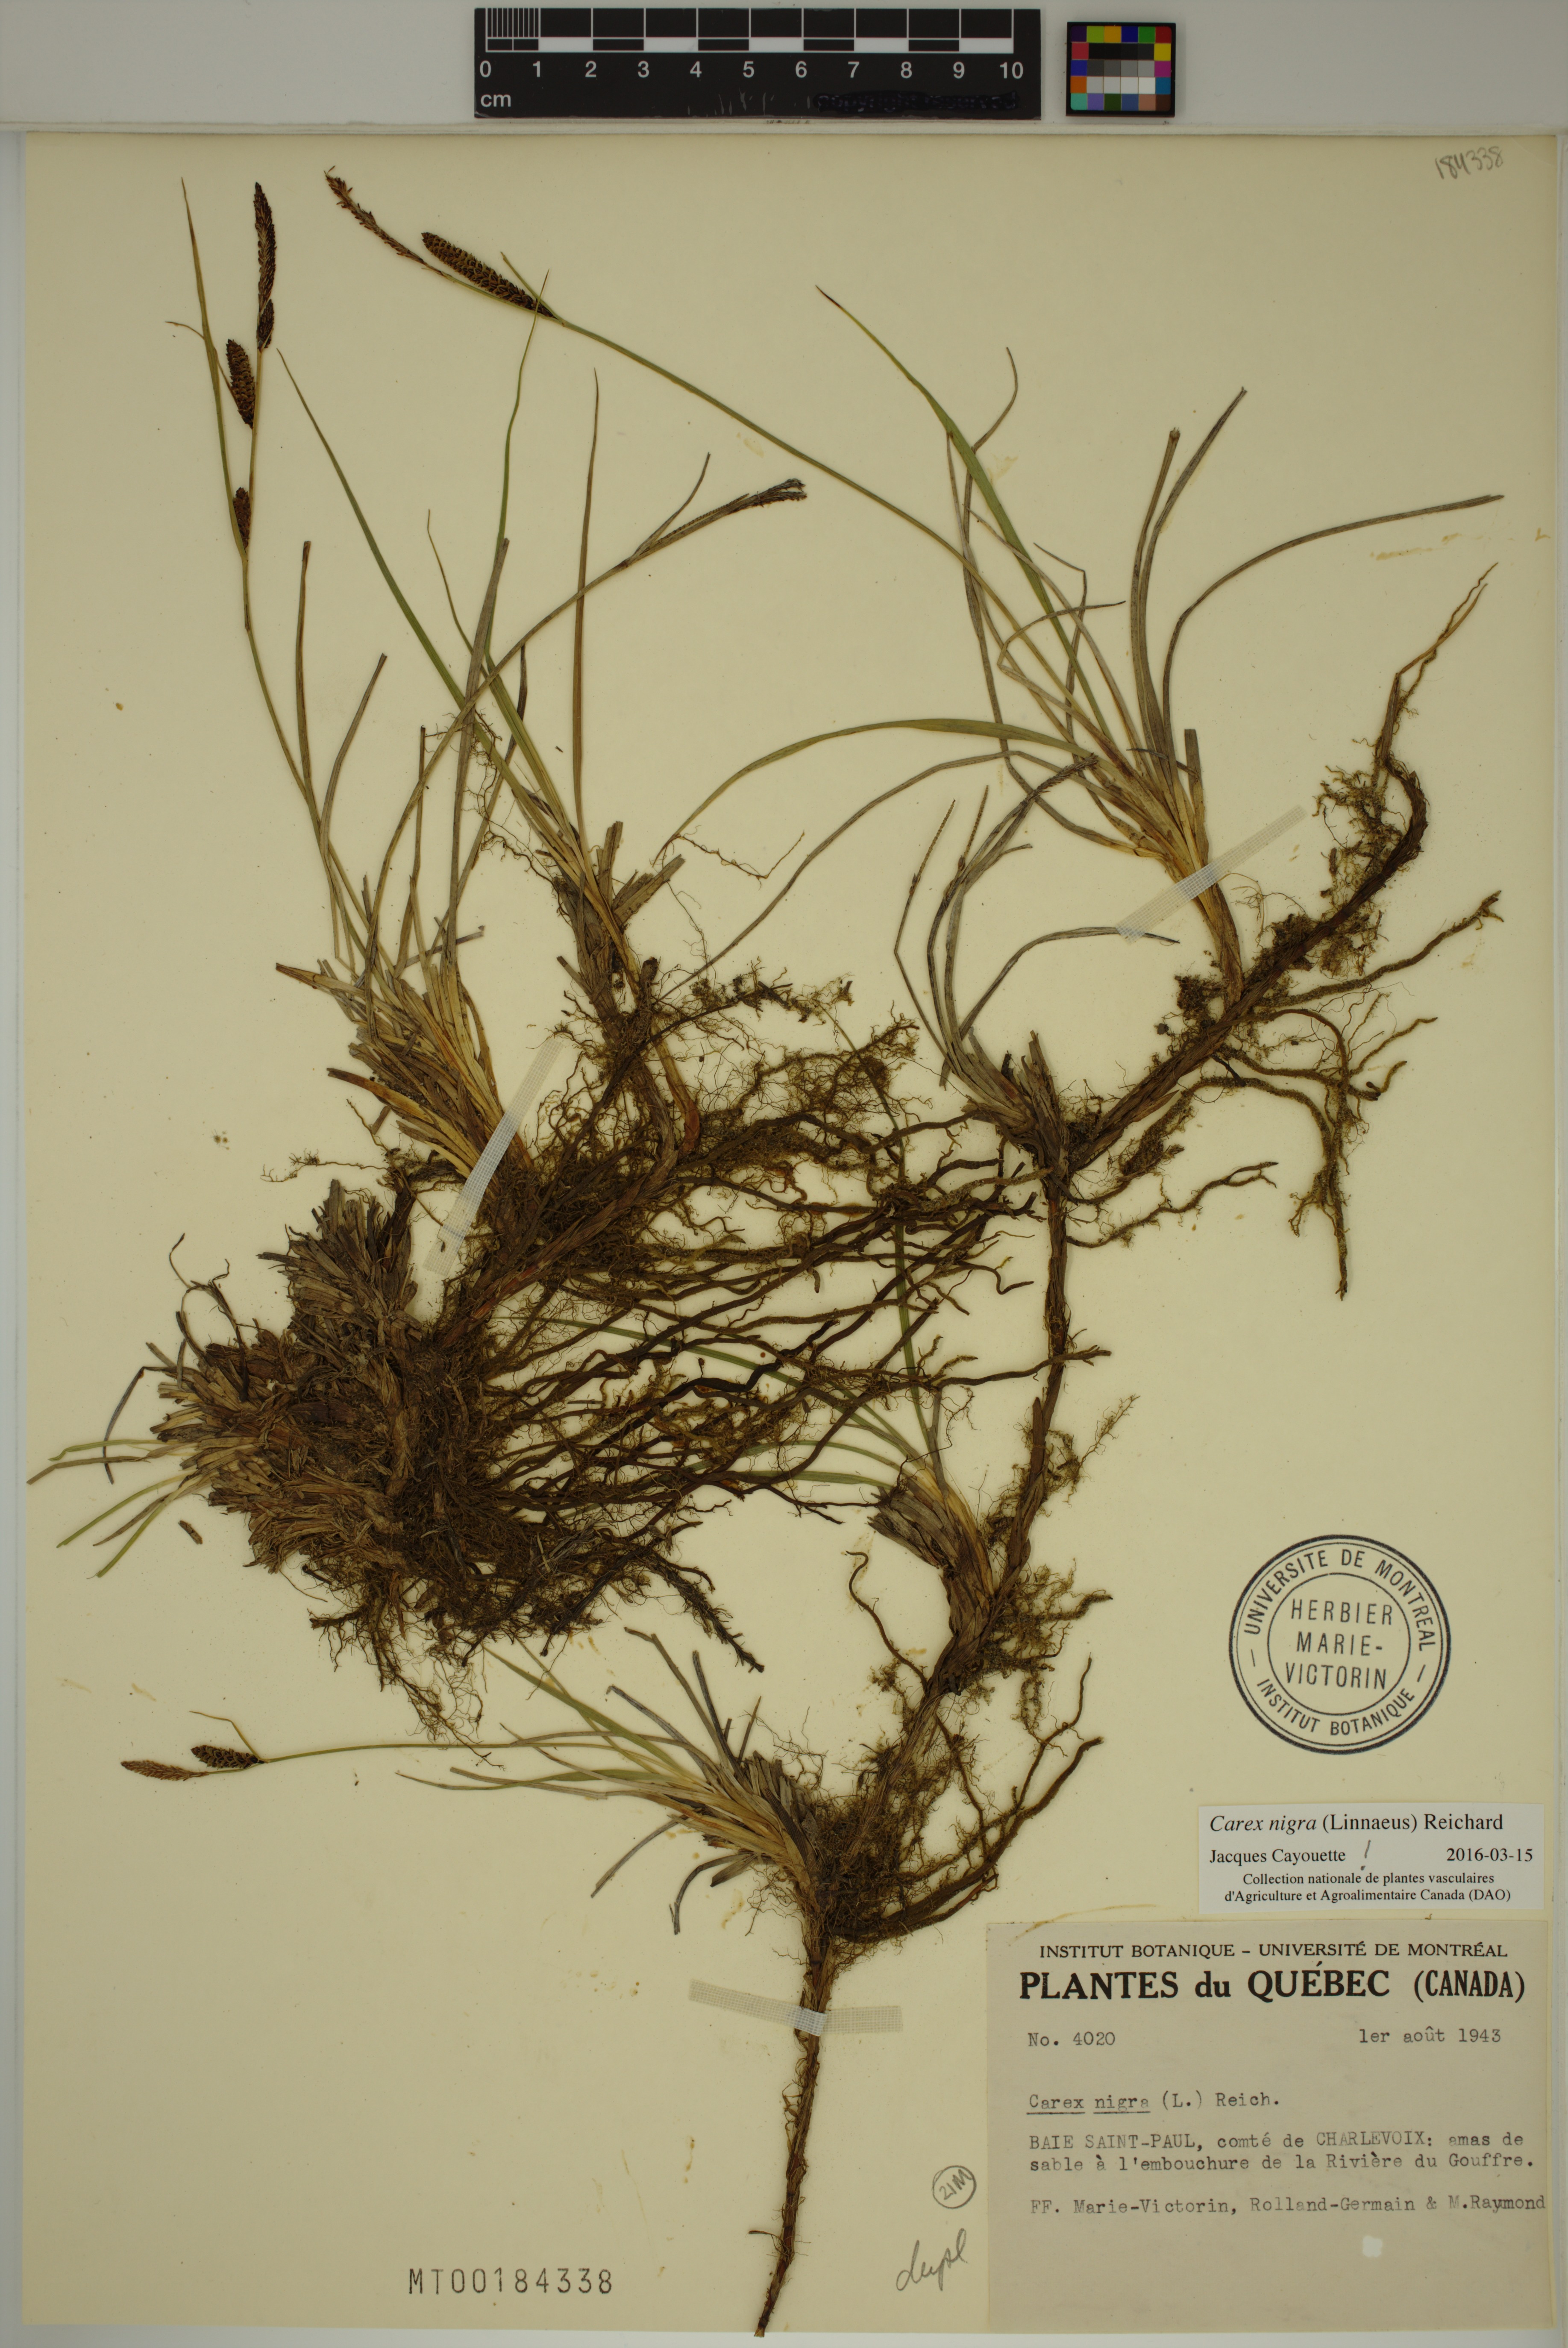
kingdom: Plantae
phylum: Tracheophyta
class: Liliopsida
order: Poales
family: Cyperaceae
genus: Carex
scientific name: Carex nigra
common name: Common sedge
